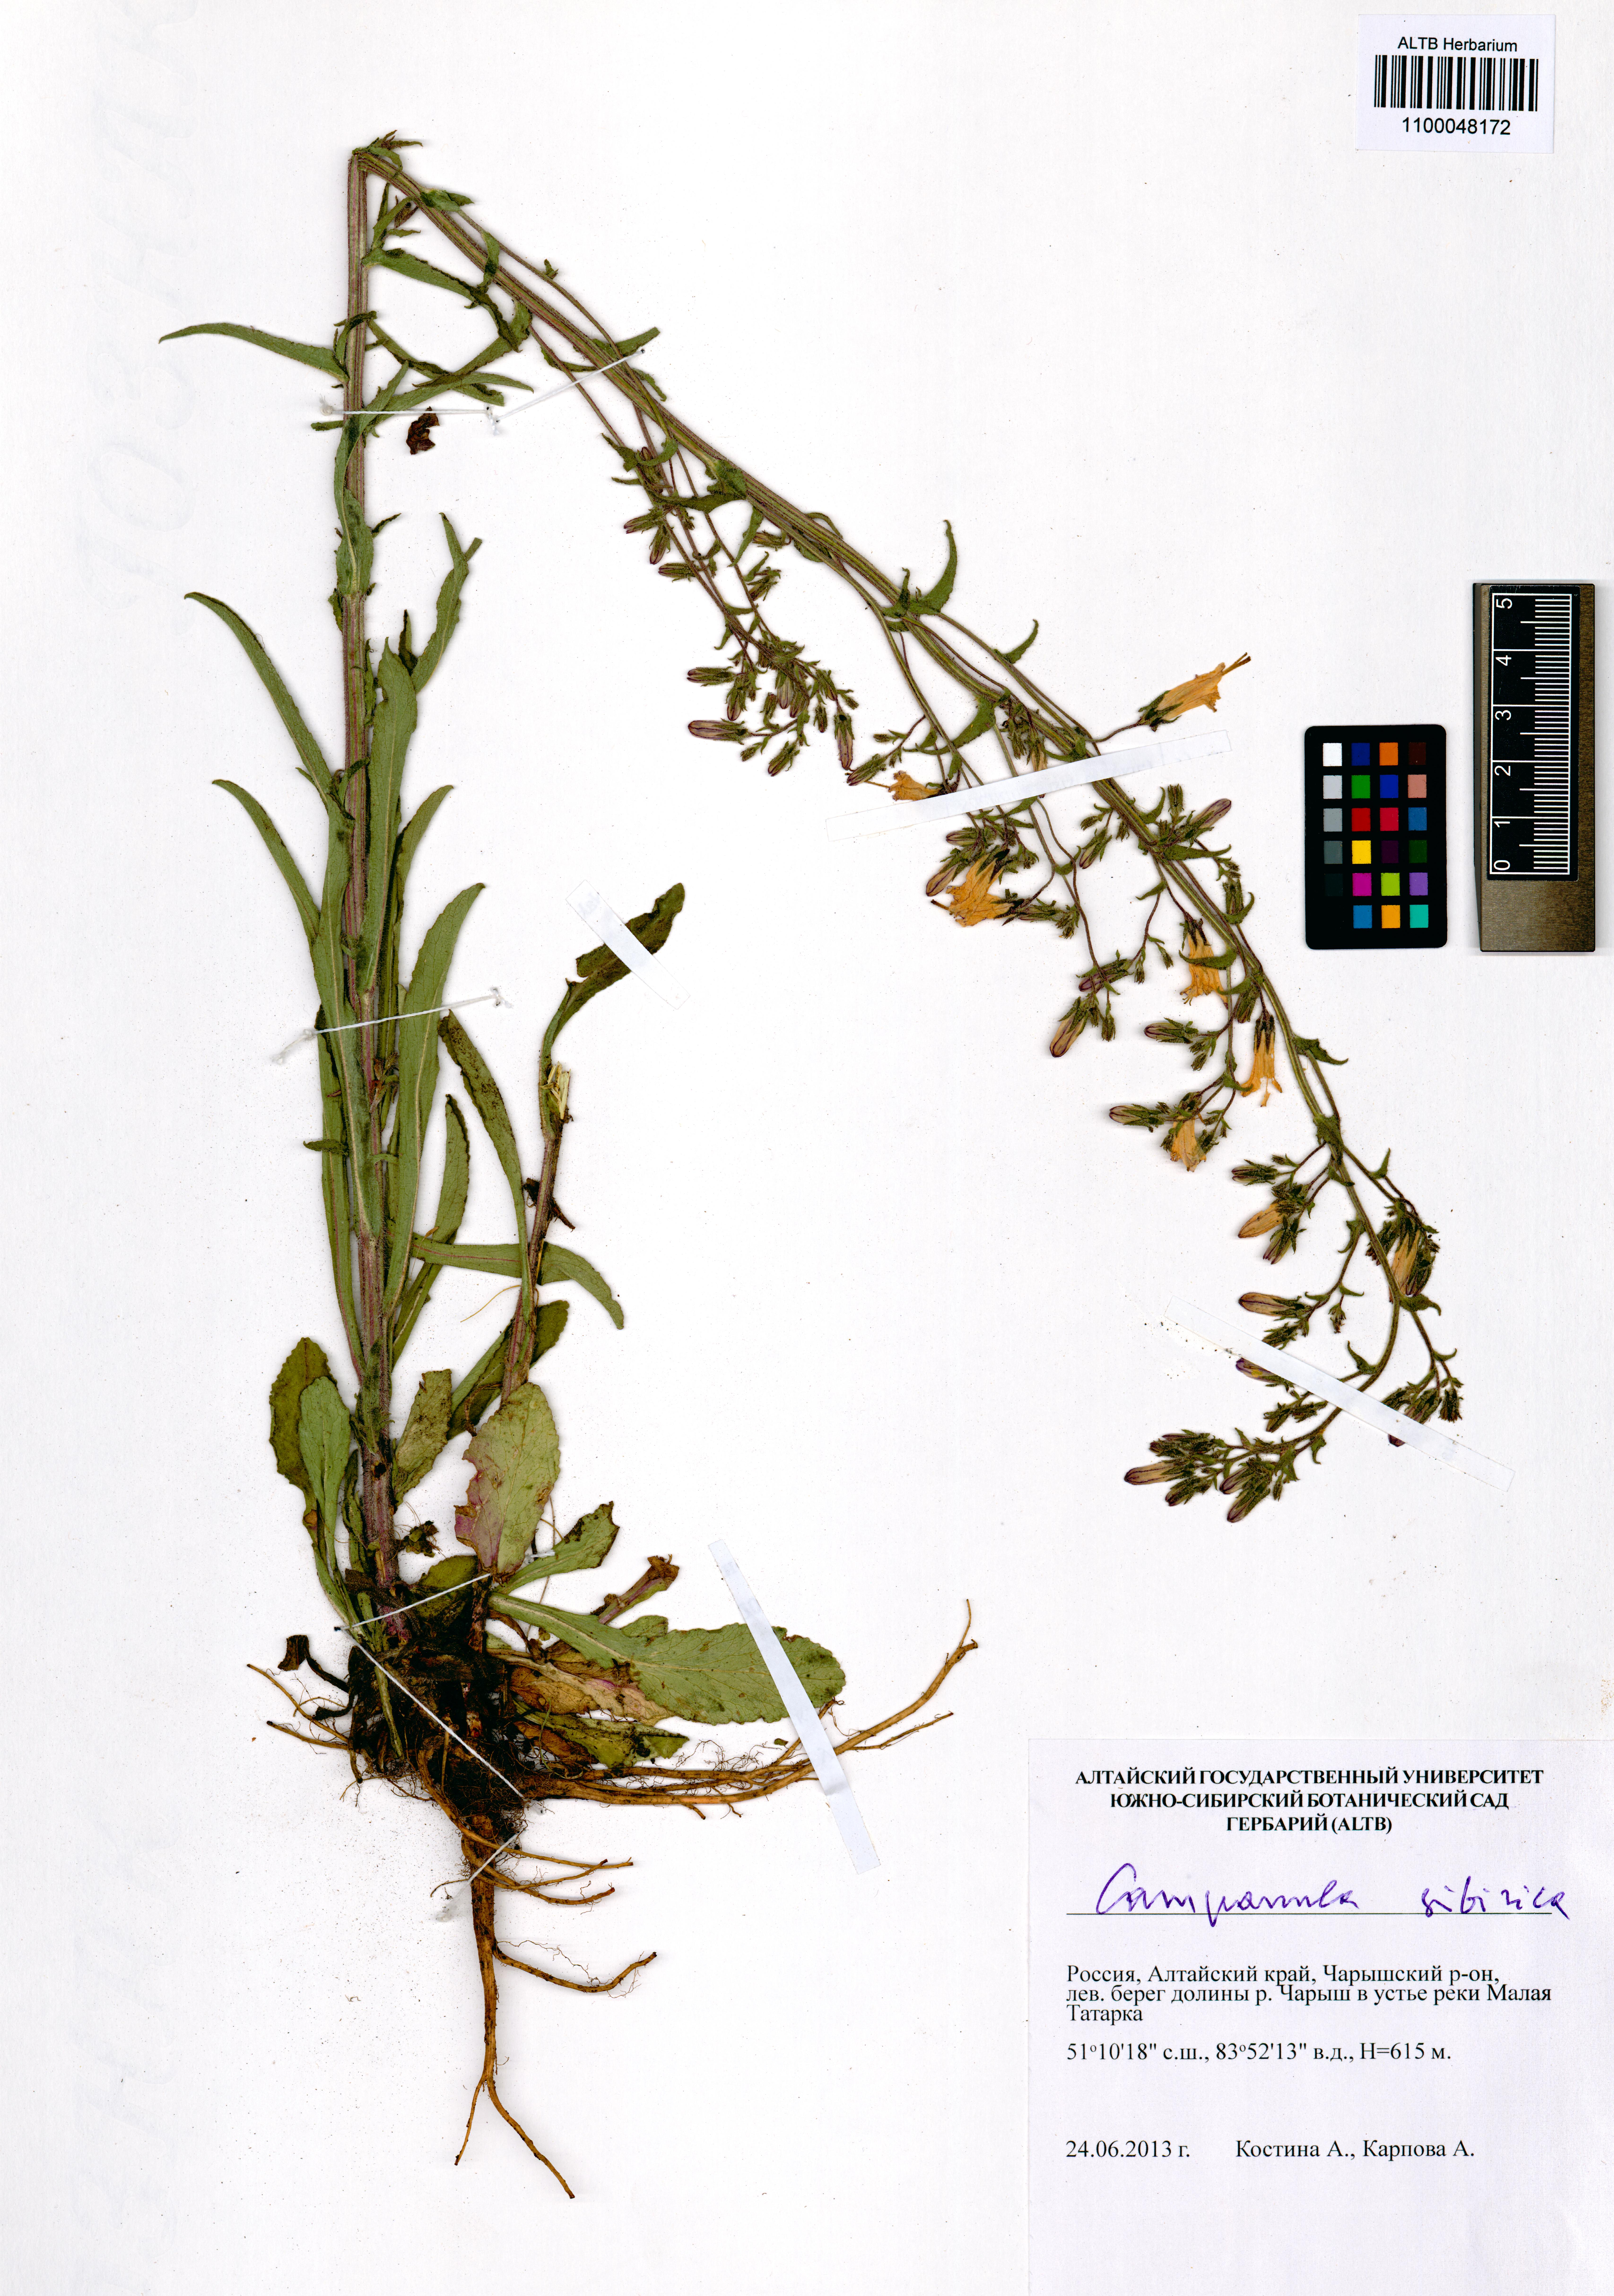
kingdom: Plantae
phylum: Tracheophyta
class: Magnoliopsida
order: Asterales
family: Campanulaceae
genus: Campanula
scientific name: Campanula sibirica
